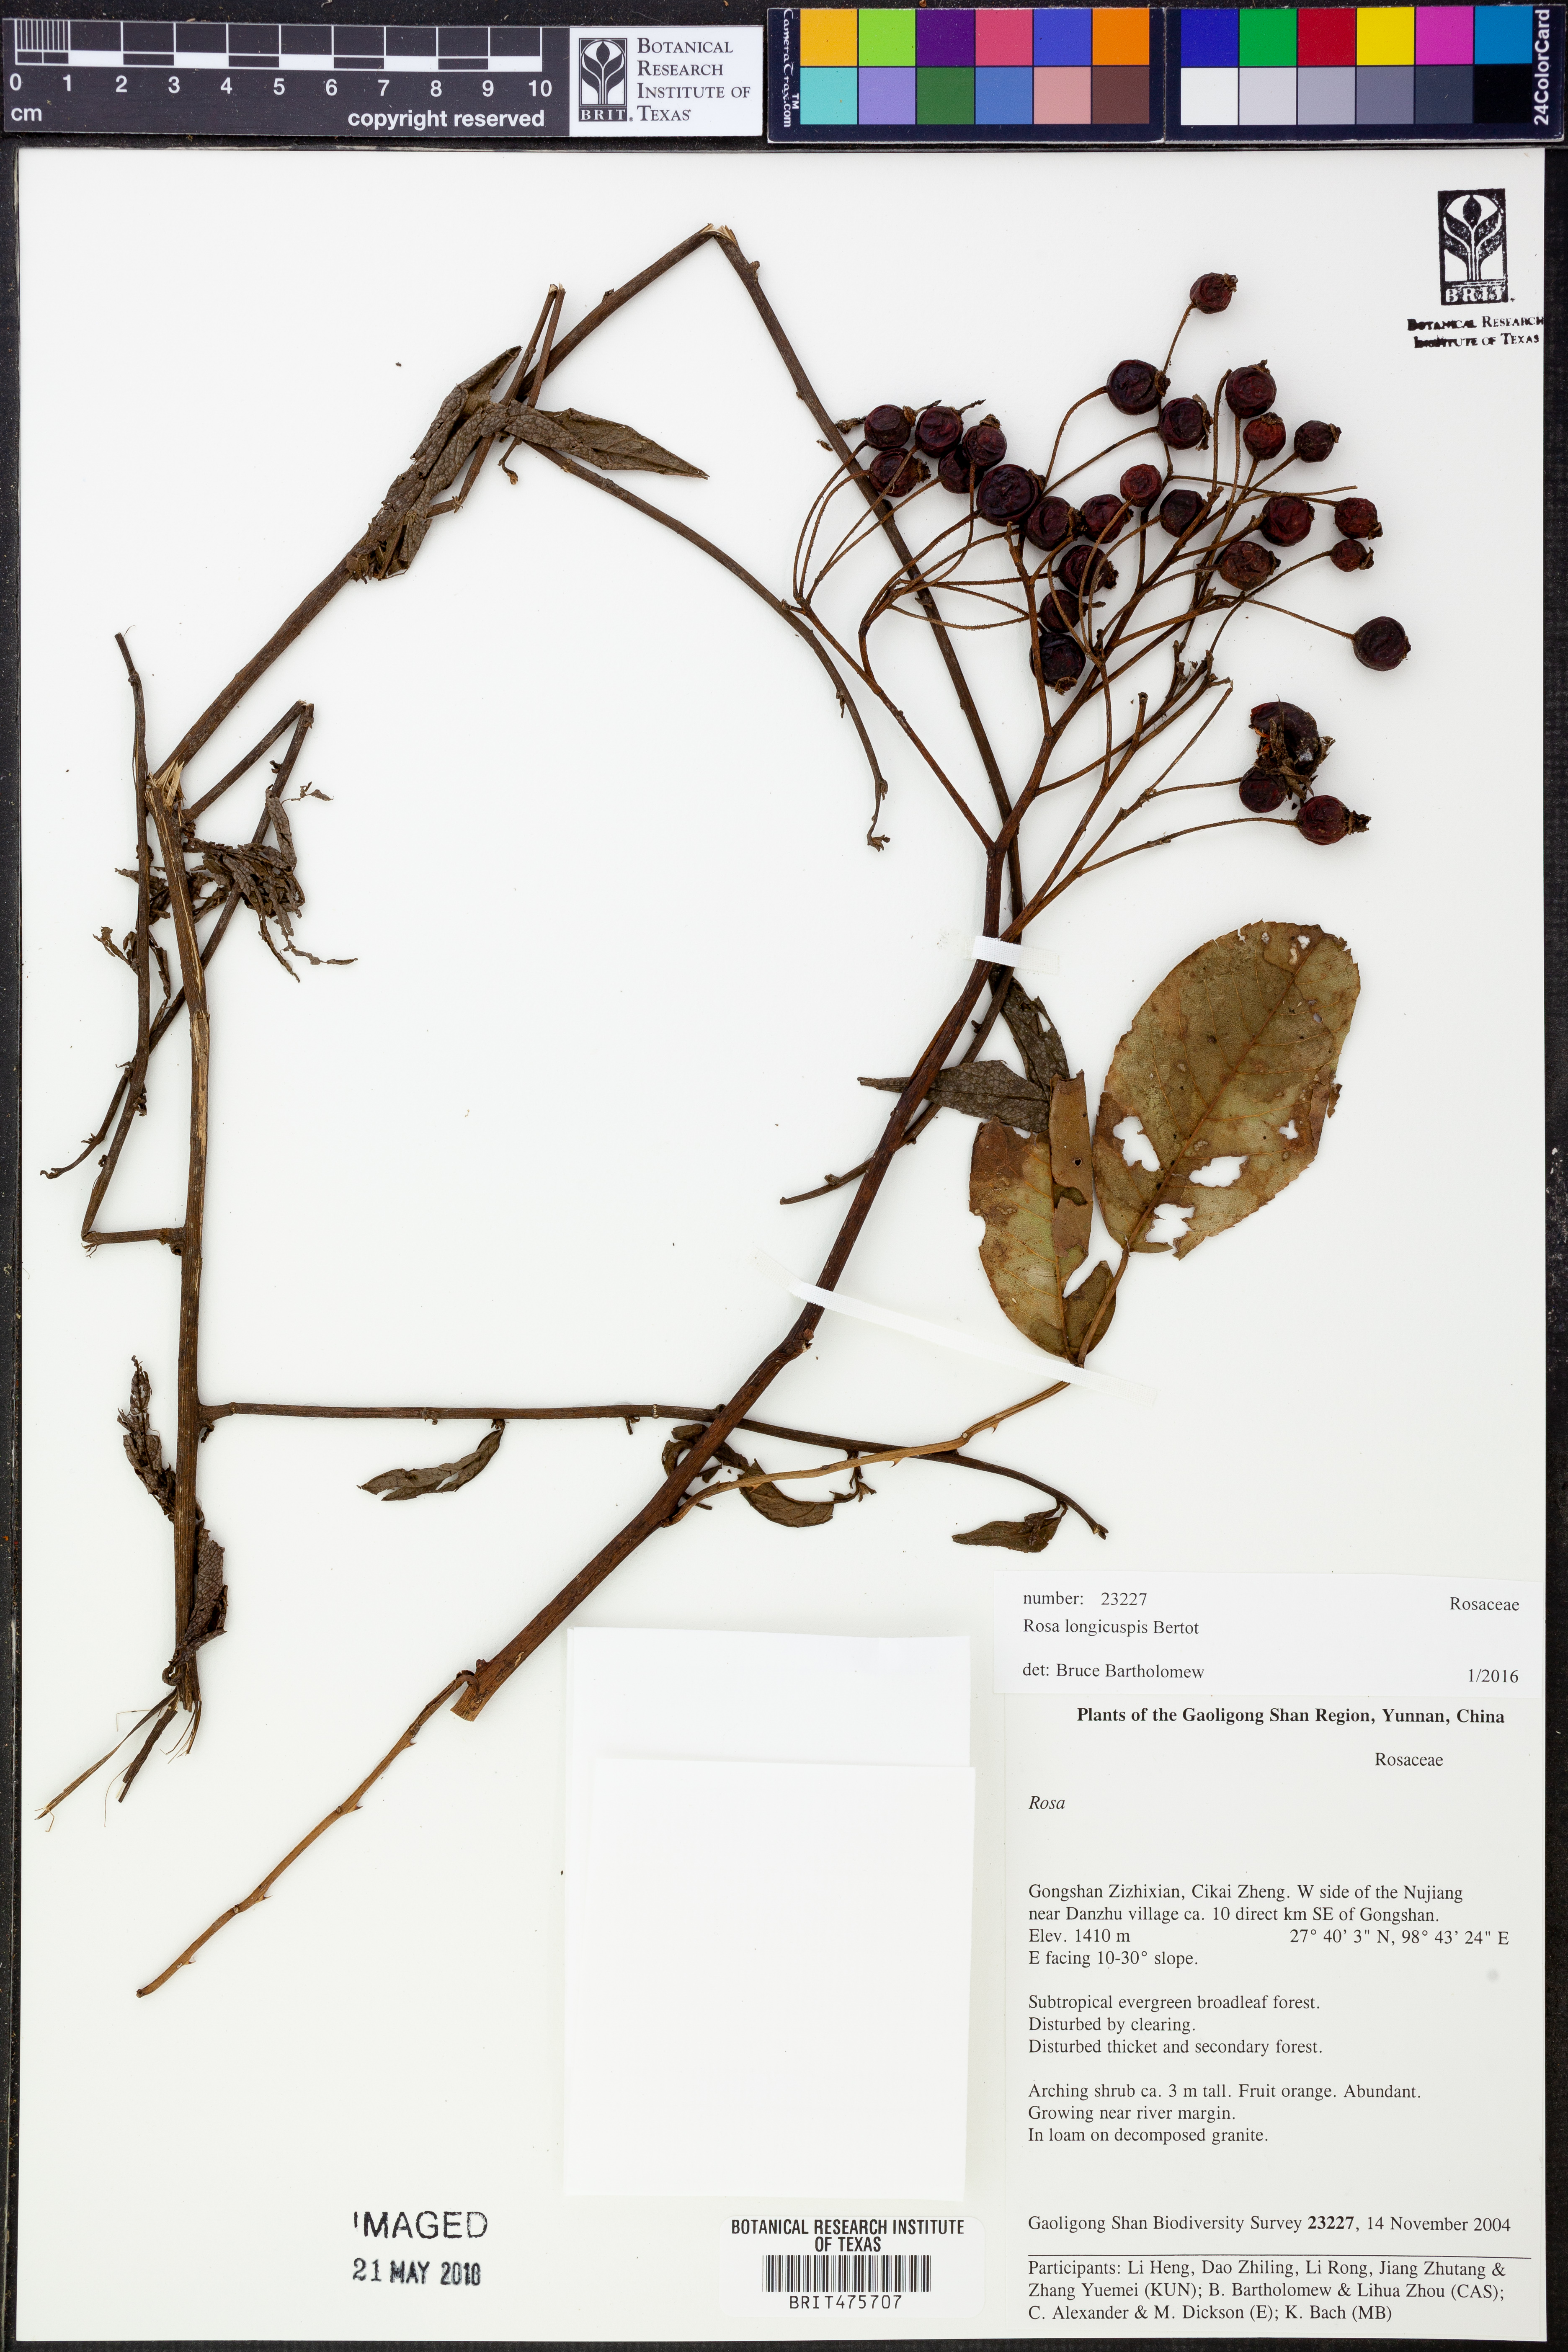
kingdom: Plantae
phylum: Tracheophyta
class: Magnoliopsida
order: Rosales
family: Rosaceae
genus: Rosa
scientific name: Rosa longicuspis
